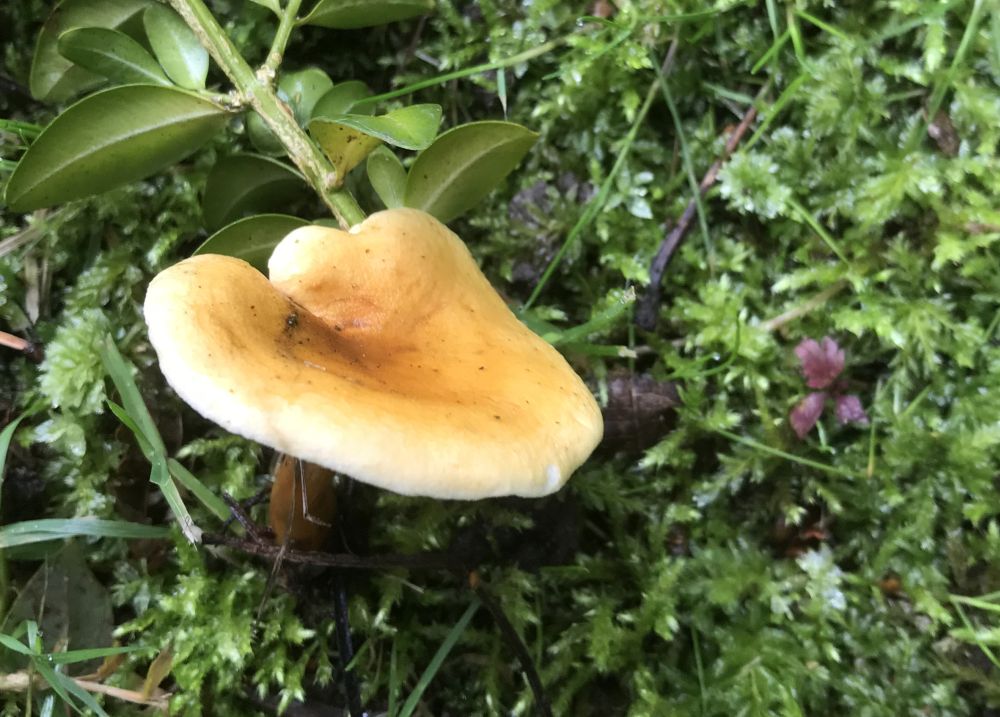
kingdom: Fungi
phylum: Basidiomycota
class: Agaricomycetes
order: Boletales
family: Hygrophoropsidaceae
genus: Hygrophoropsis
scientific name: Hygrophoropsis pallida
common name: bleg orangekantarel
